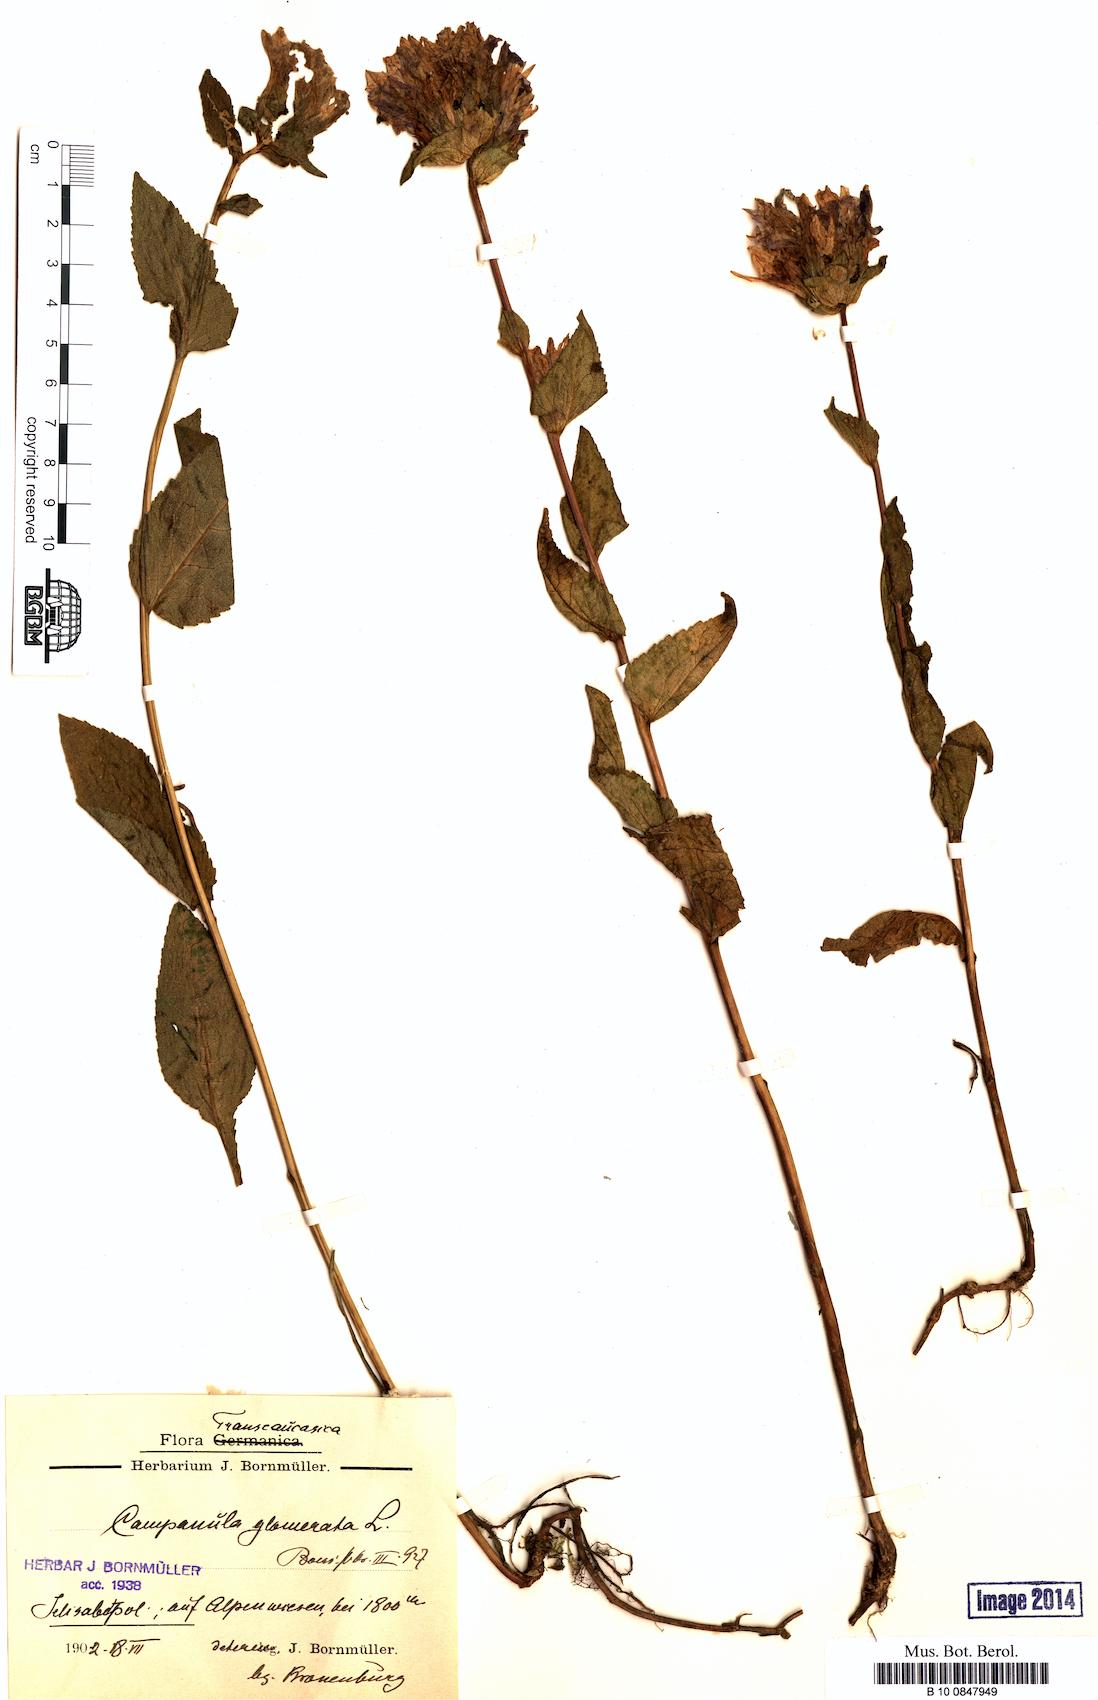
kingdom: Plantae
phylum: Tracheophyta
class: Magnoliopsida
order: Asterales
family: Campanulaceae
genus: Campanula
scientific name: Campanula glomerata
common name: Clustered bellflower
